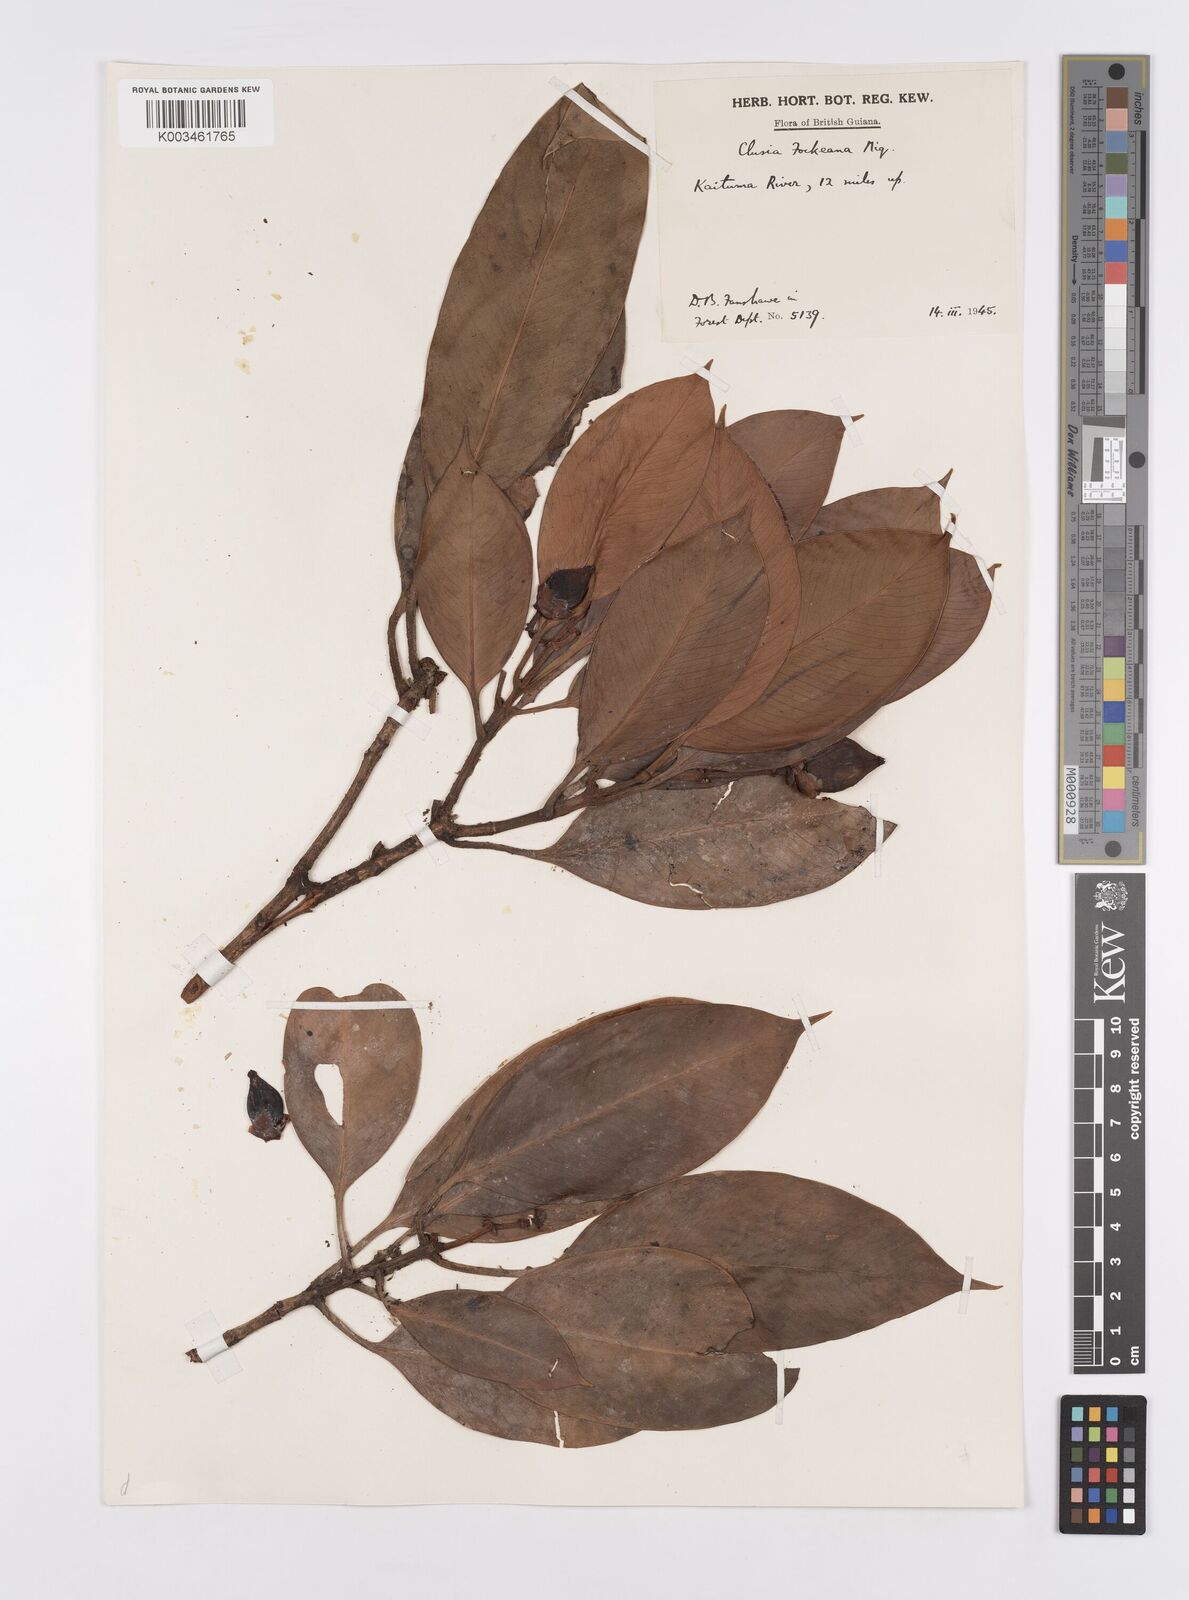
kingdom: Plantae
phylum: Tracheophyta
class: Magnoliopsida
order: Malpighiales
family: Clusiaceae
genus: Clusia
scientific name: Clusia fockeana
